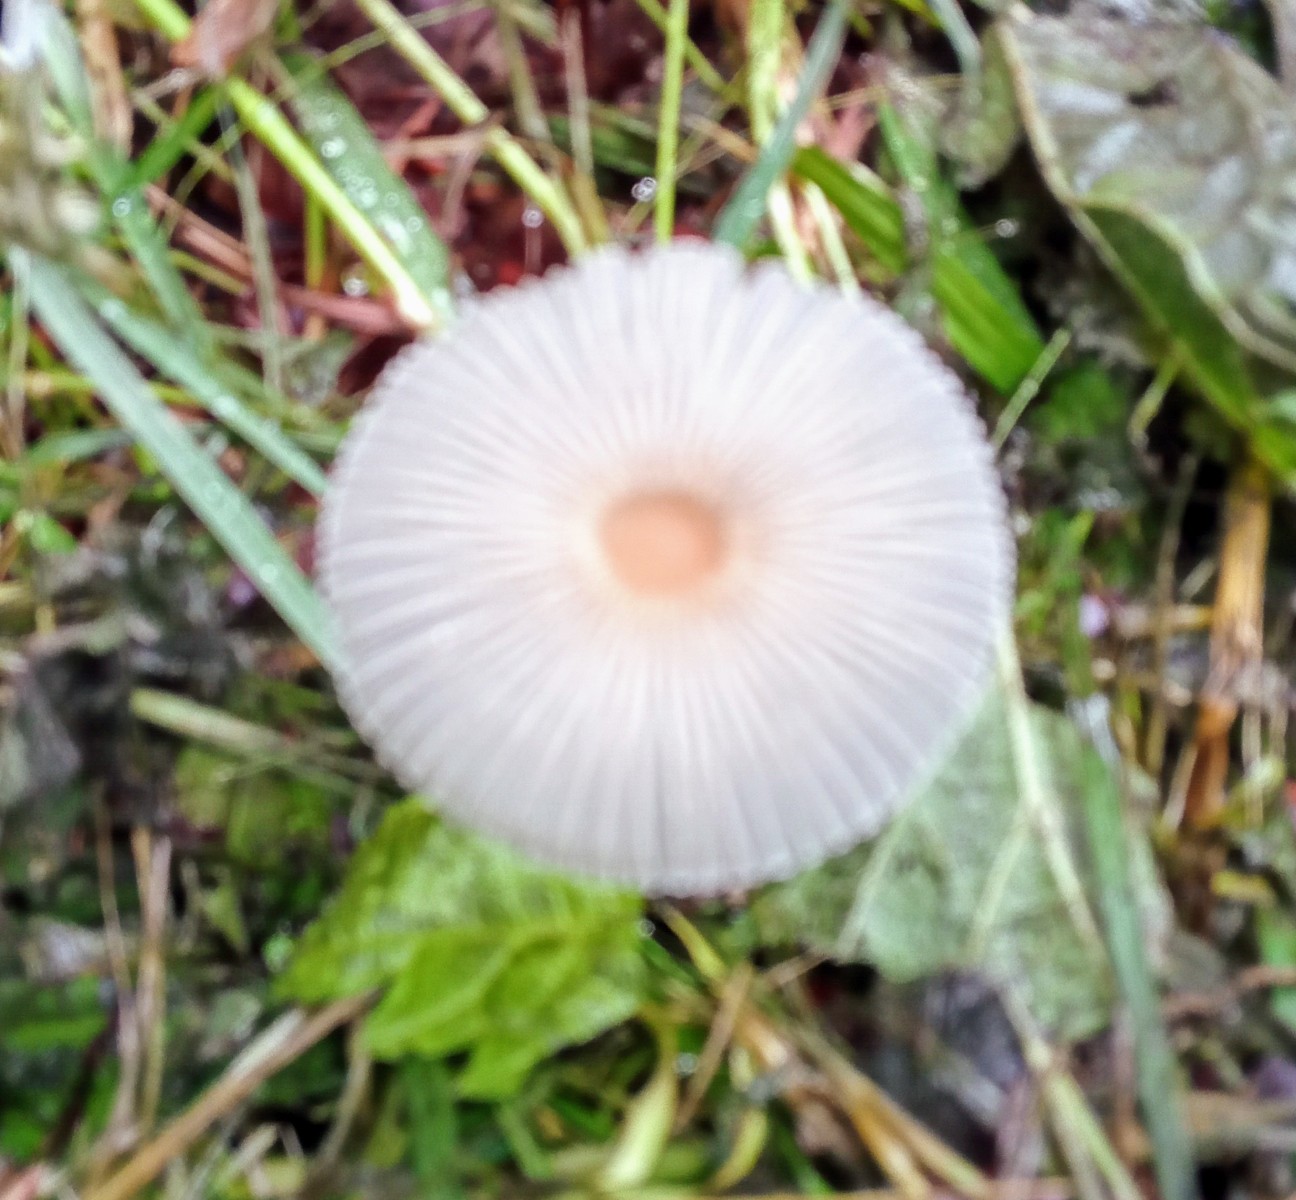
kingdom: Fungi
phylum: Basidiomycota
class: Agaricomycetes
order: Agaricales
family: Psathyrellaceae
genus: Parasola
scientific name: Parasola
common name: hjulhat
